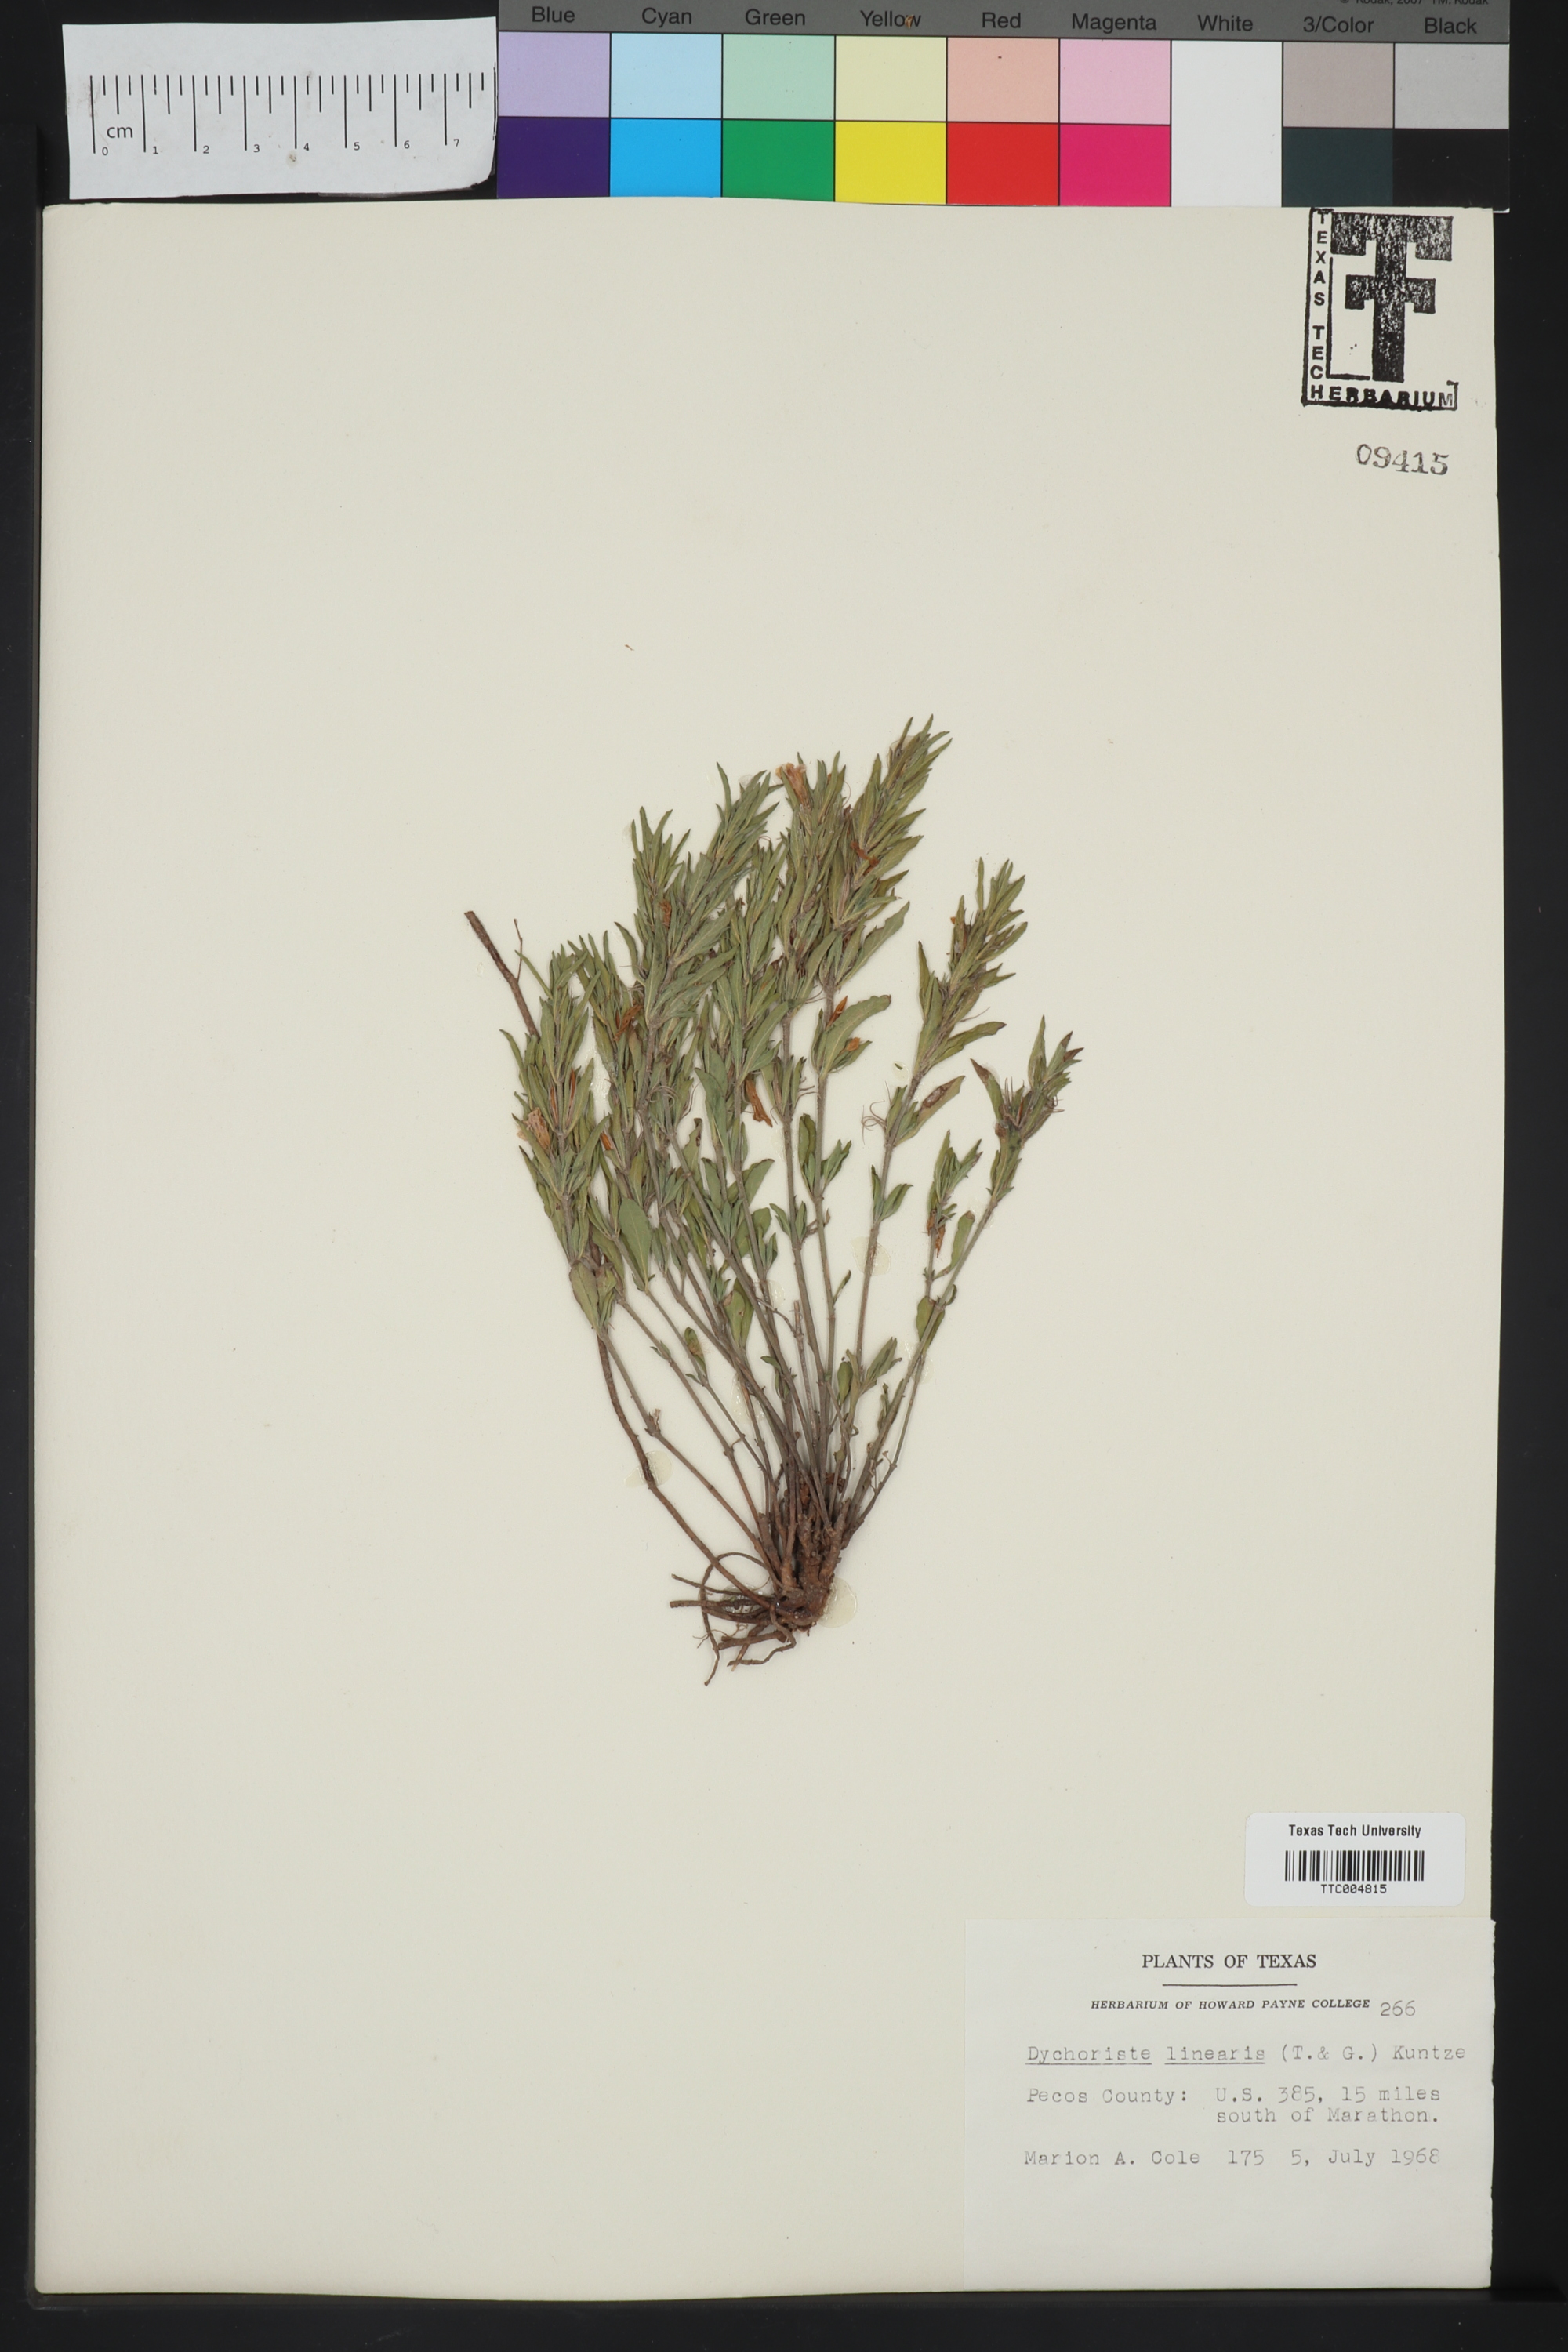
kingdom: Plantae
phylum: Tracheophyta
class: Magnoliopsida
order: Lamiales
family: Acanthaceae
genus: Dyschoriste
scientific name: Dyschoriste linearis
